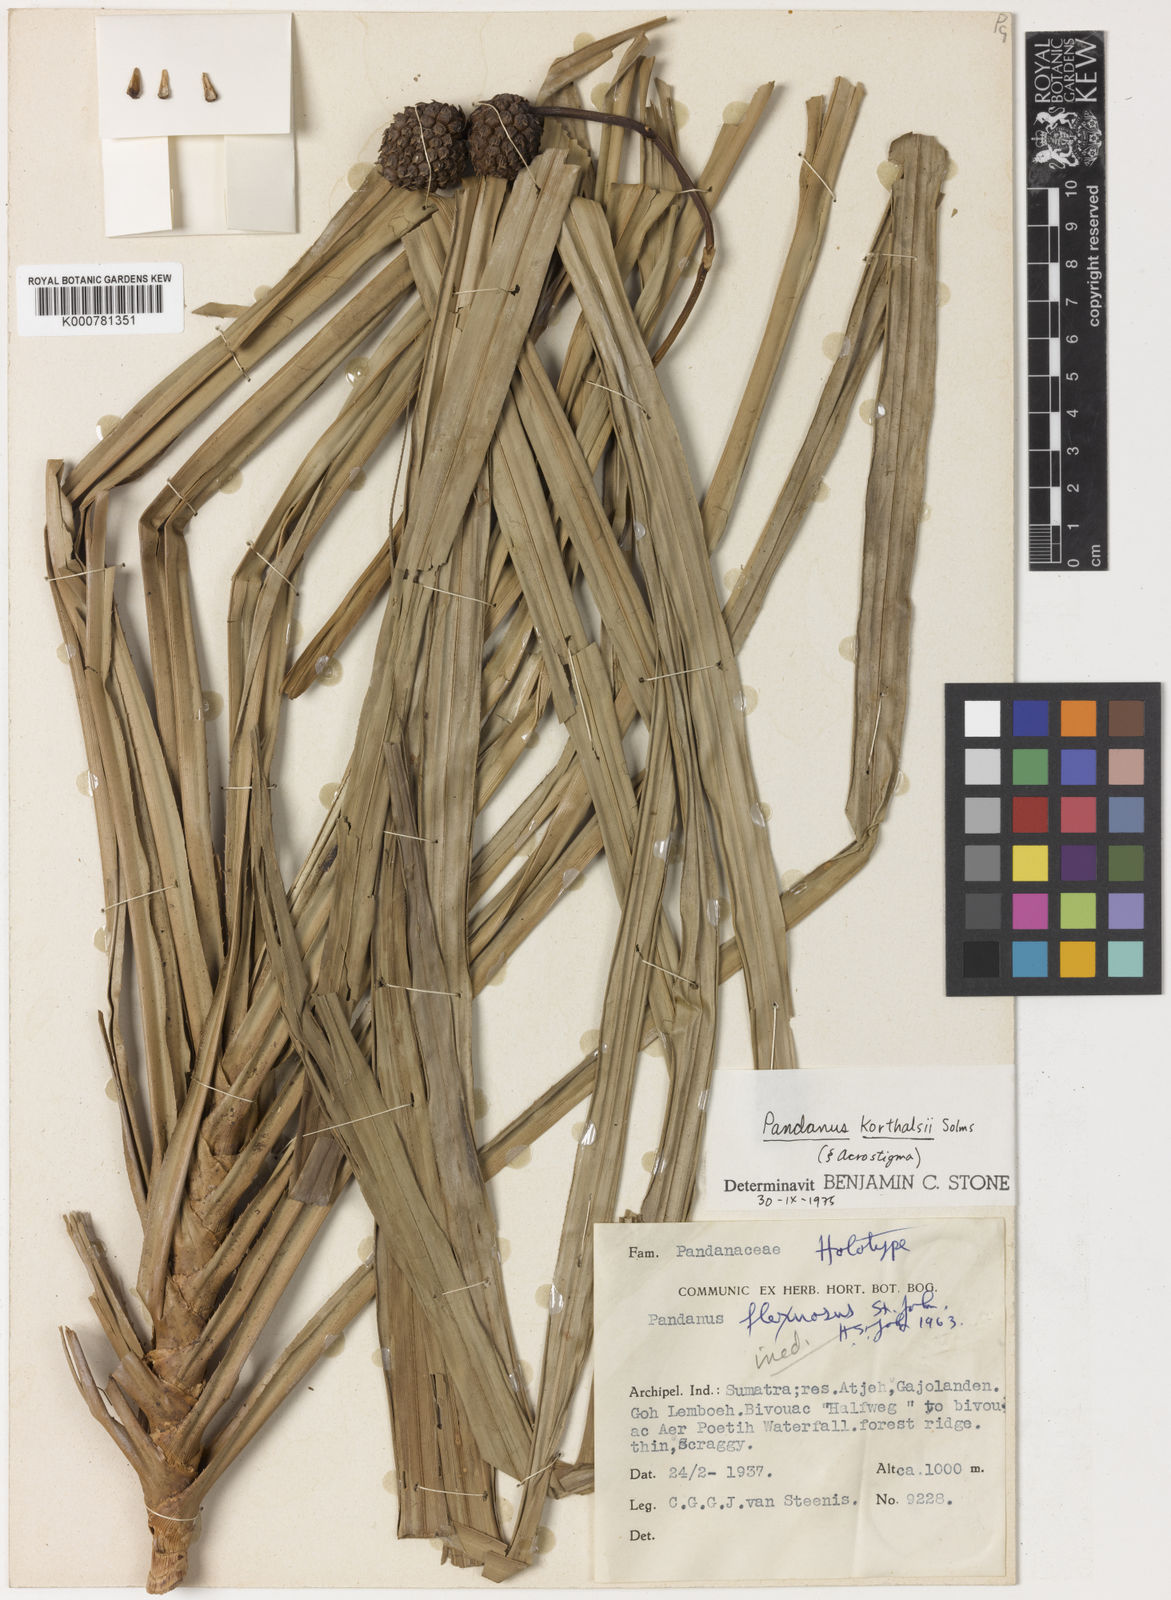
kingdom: Plantae
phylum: Tracheophyta
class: Liliopsida
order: Pandanales
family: Pandanaceae
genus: Pandanus
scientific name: Pandanus
